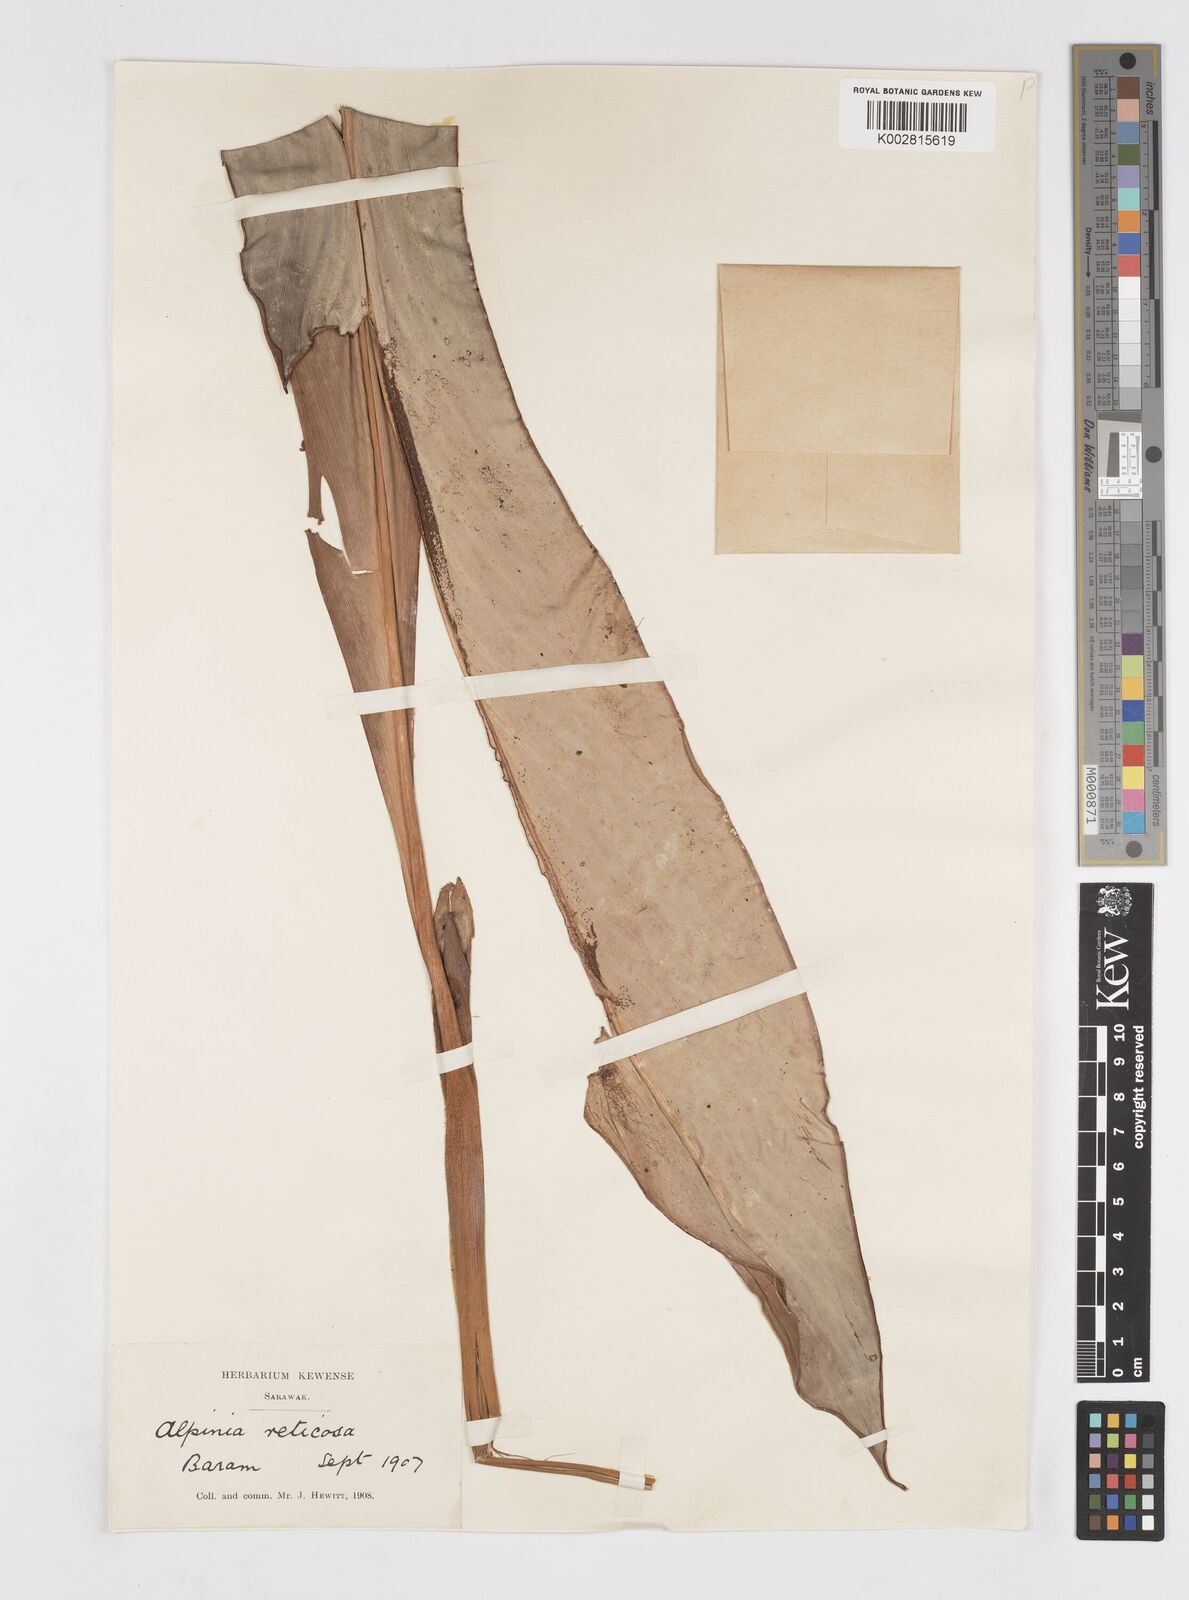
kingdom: Plantae
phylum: Tracheophyta
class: Liliopsida
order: Zingiberales
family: Zingiberaceae
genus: Alpinia
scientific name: Alpinia ligulata
